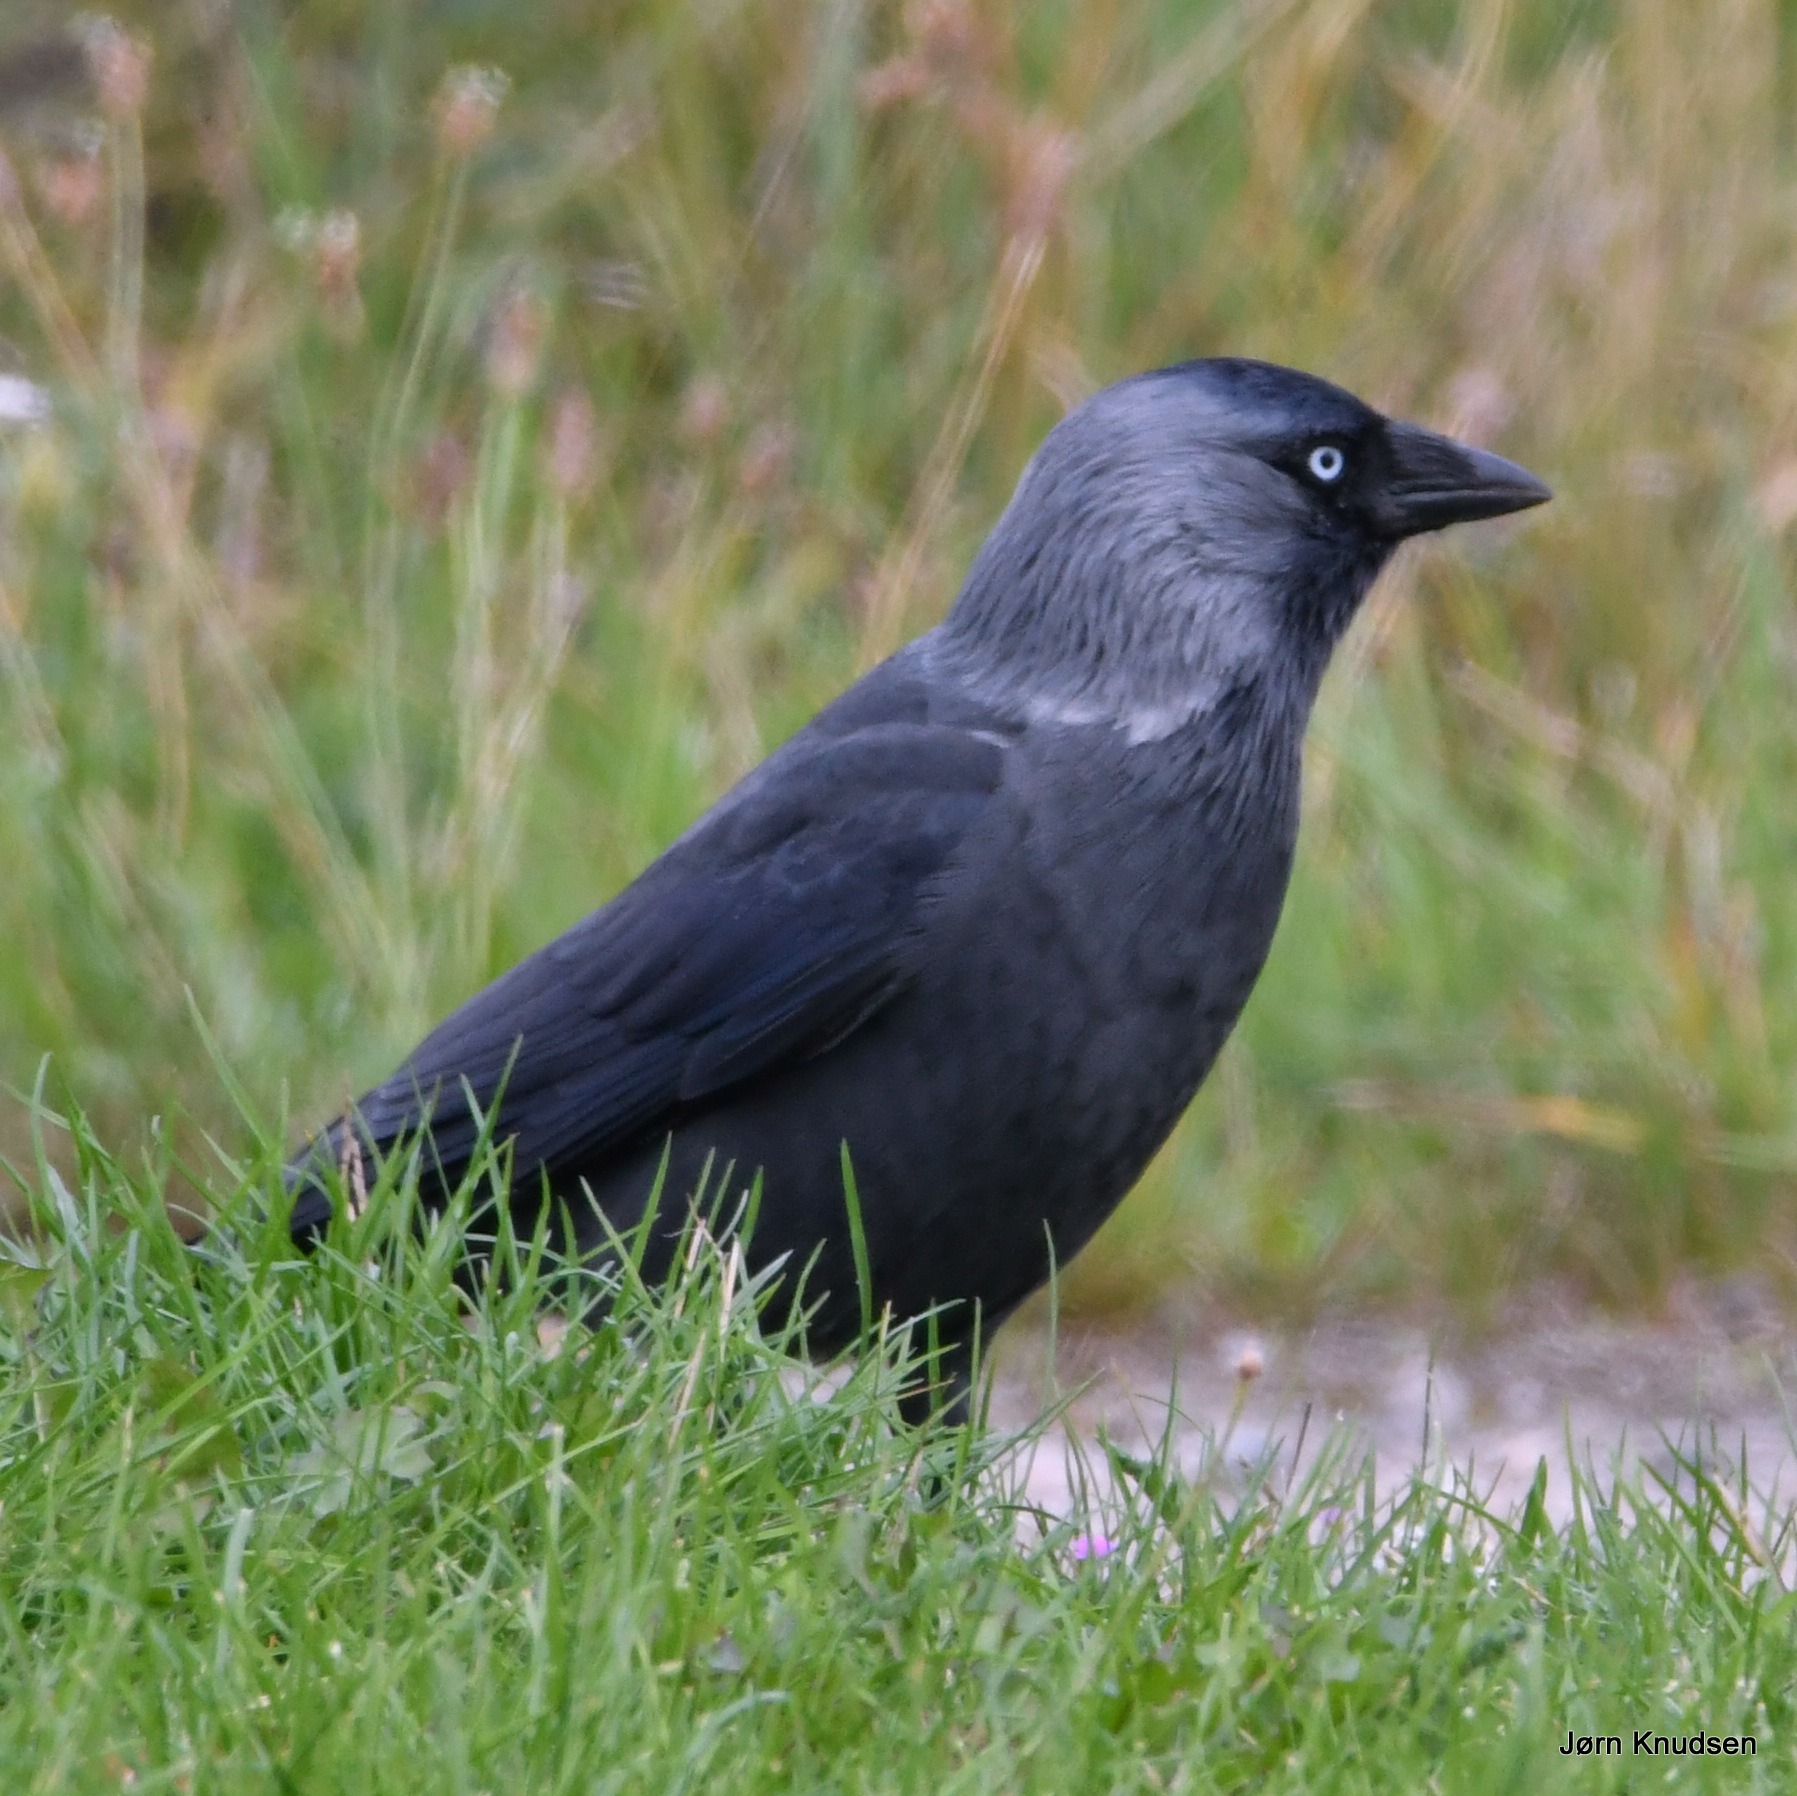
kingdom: Animalia
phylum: Chordata
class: Aves
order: Passeriformes
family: Corvidae
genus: Coloeus
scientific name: Coloeus monedula
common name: Allike
